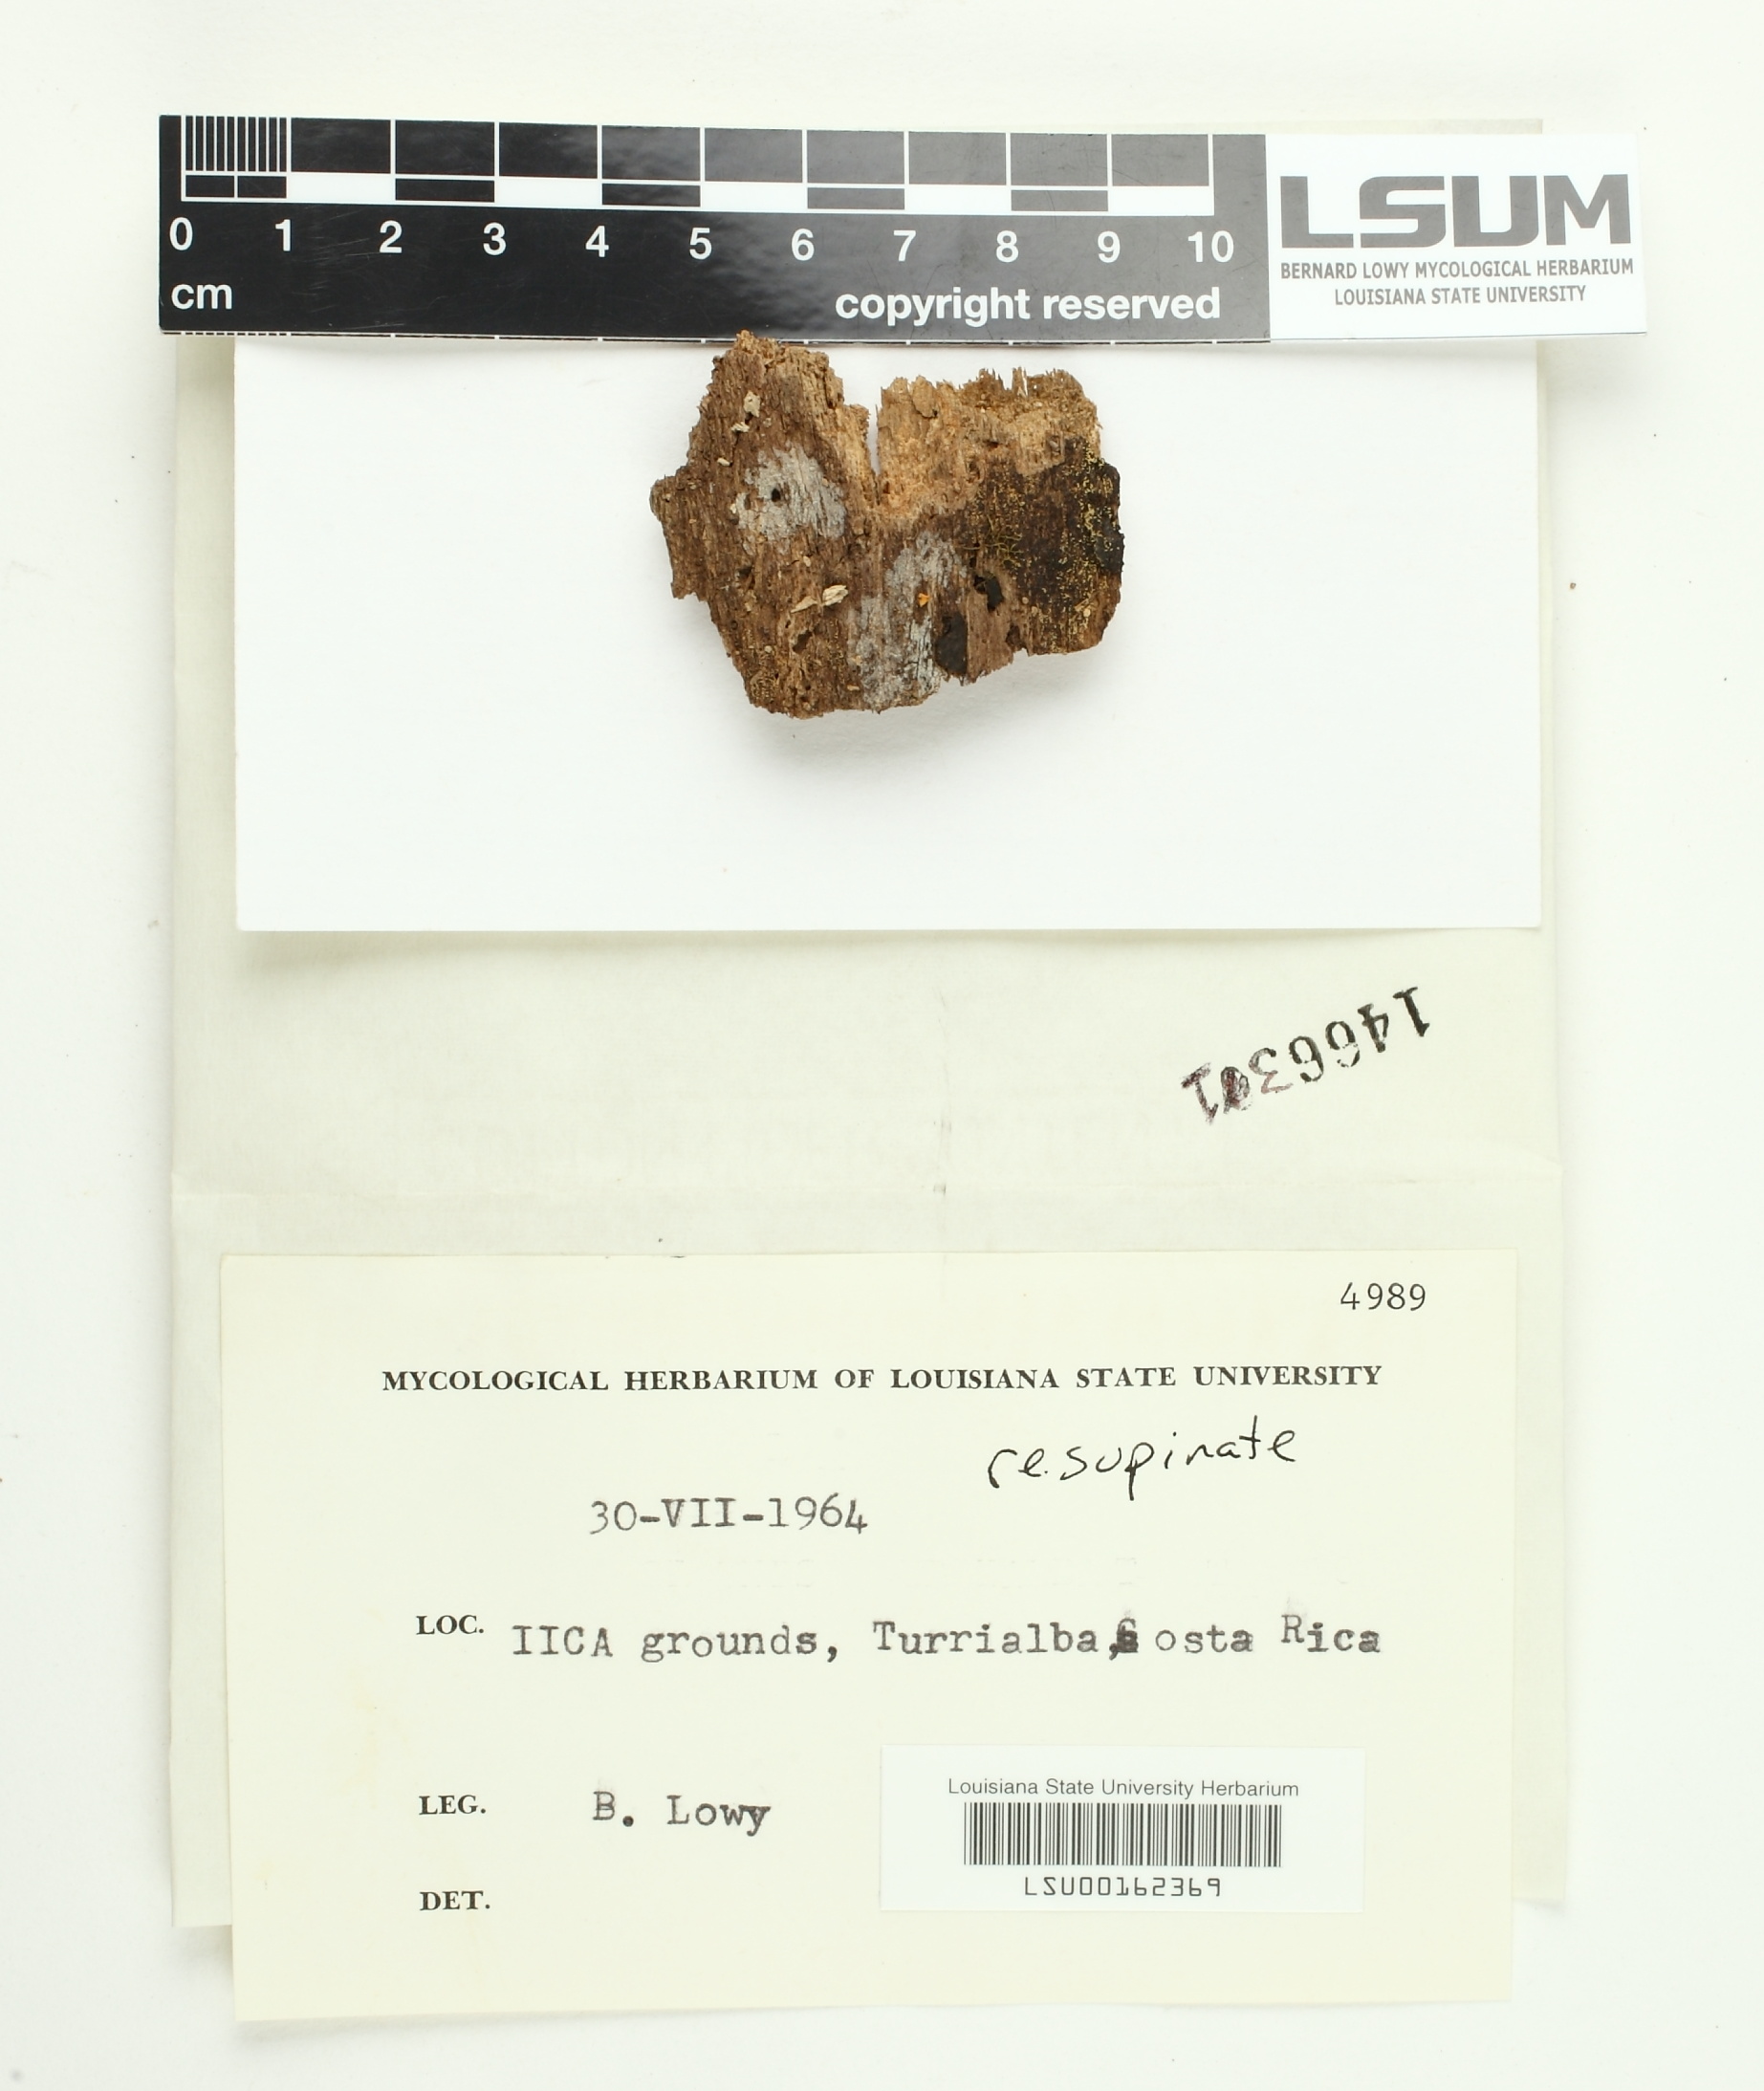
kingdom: Fungi
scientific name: Fungi
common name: Fungi
